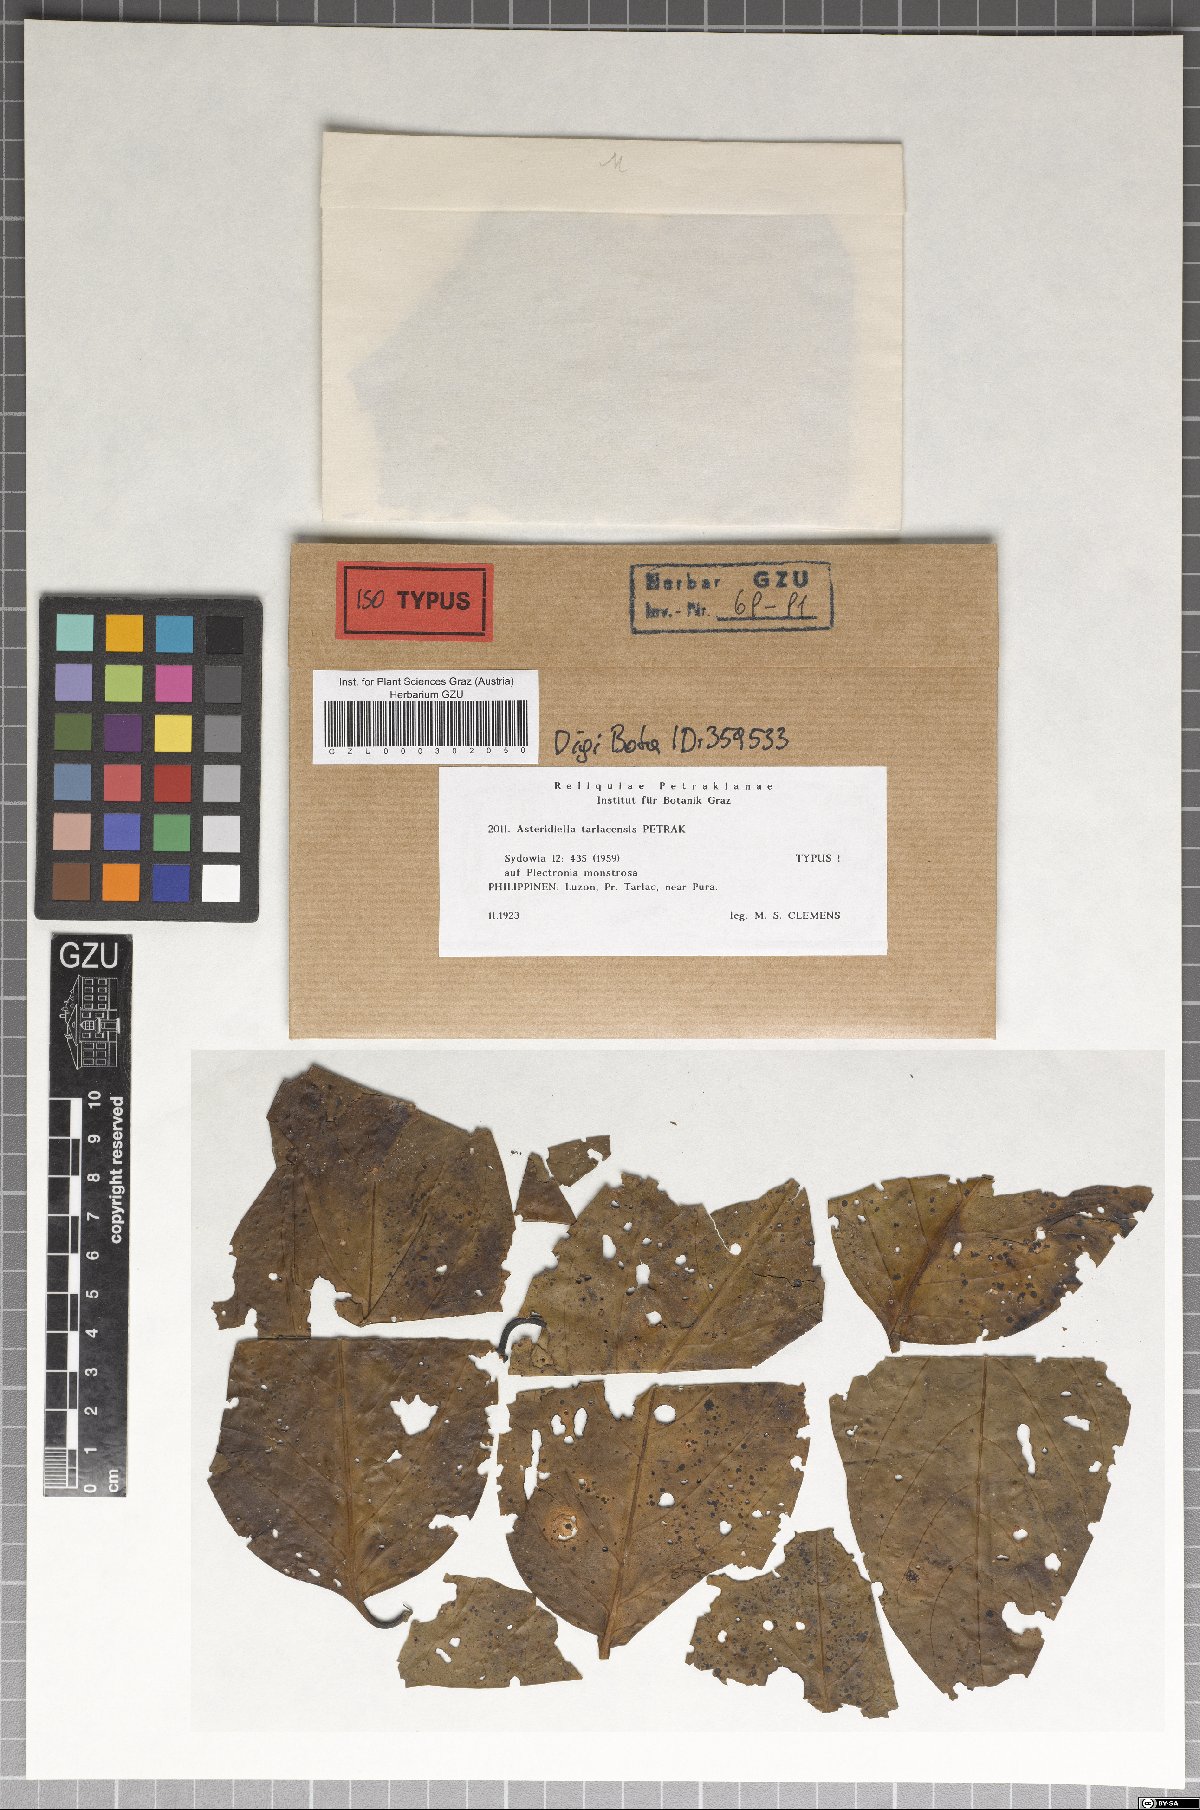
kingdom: Fungi
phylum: Ascomycota
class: Sordariomycetes
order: Meliolales
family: Meliolaceae
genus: Asteridiella
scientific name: Asteridiella tarlacensis
